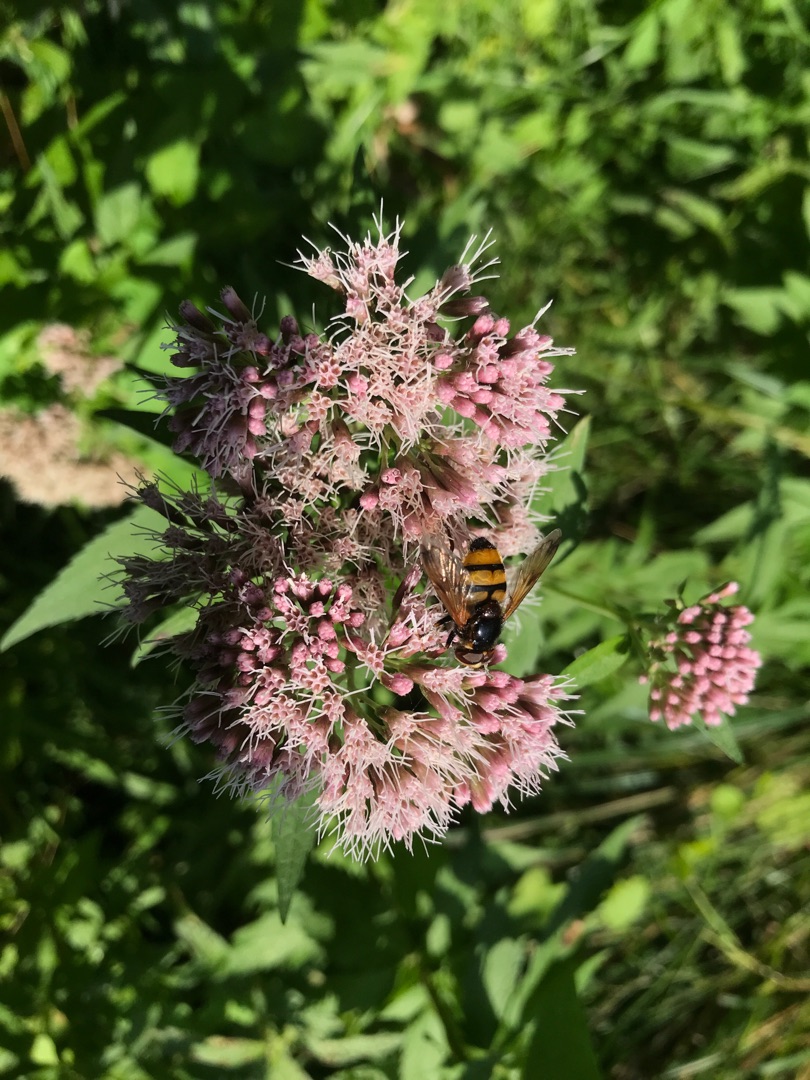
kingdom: Animalia
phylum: Arthropoda
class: Insecta
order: Diptera
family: Syrphidae
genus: Volucella
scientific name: Volucella inanis
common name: Gul humlesvirreflue
